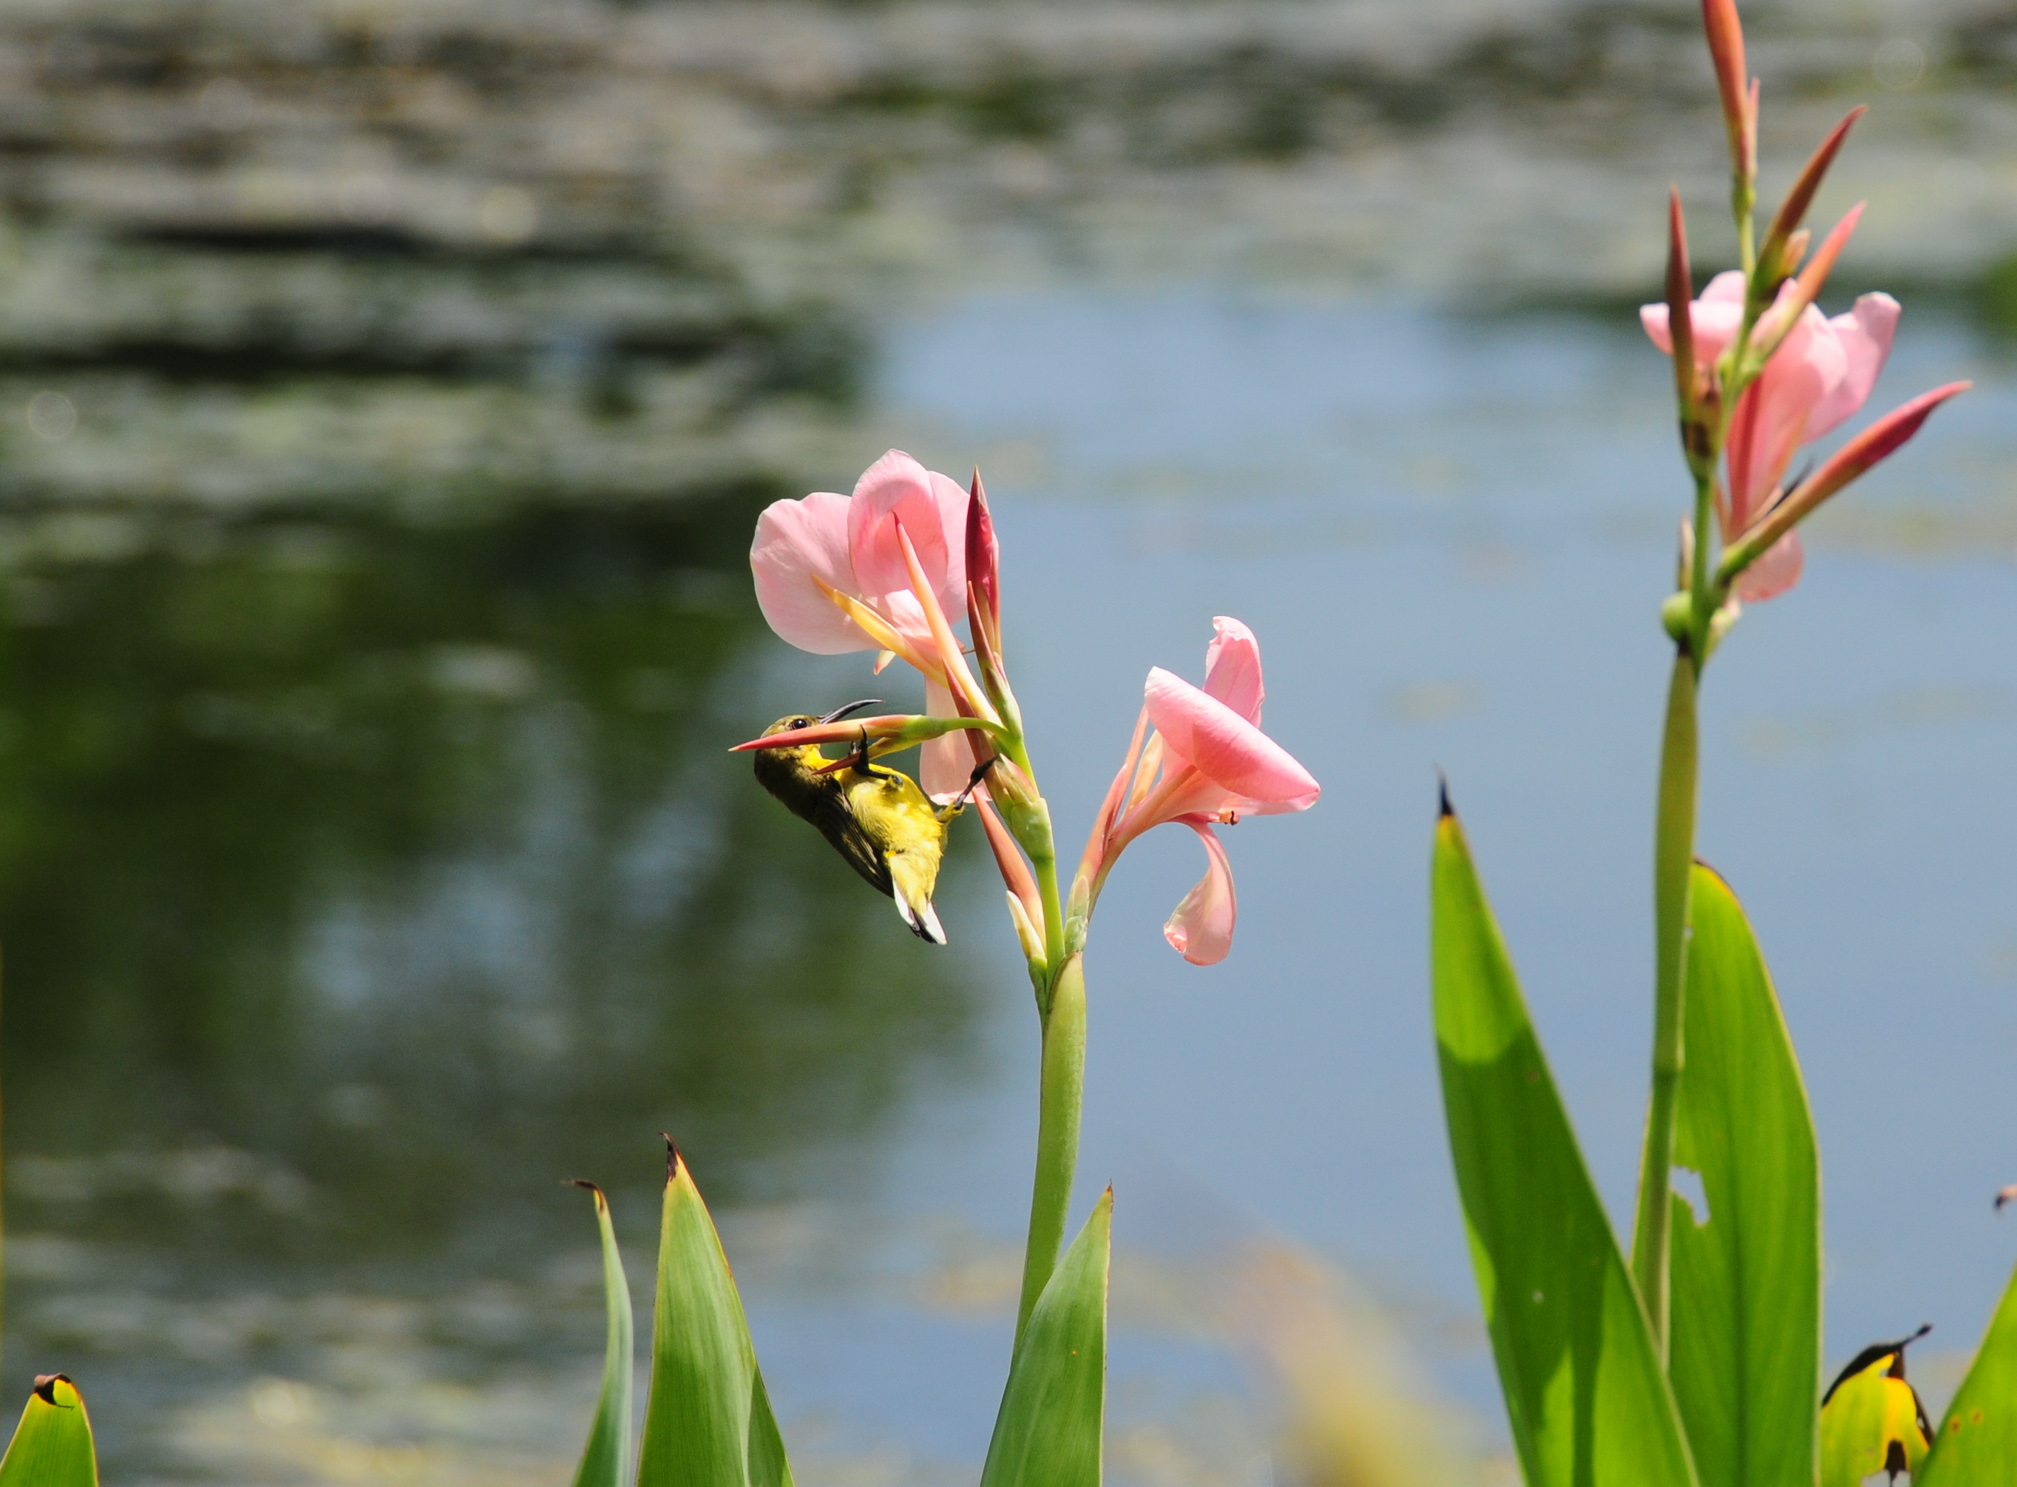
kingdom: Animalia
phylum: Chordata
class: Aves
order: Passeriformes
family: Nectariniidae
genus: Cinnyris
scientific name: Cinnyris jugularis
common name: Olive-backed sunbird
